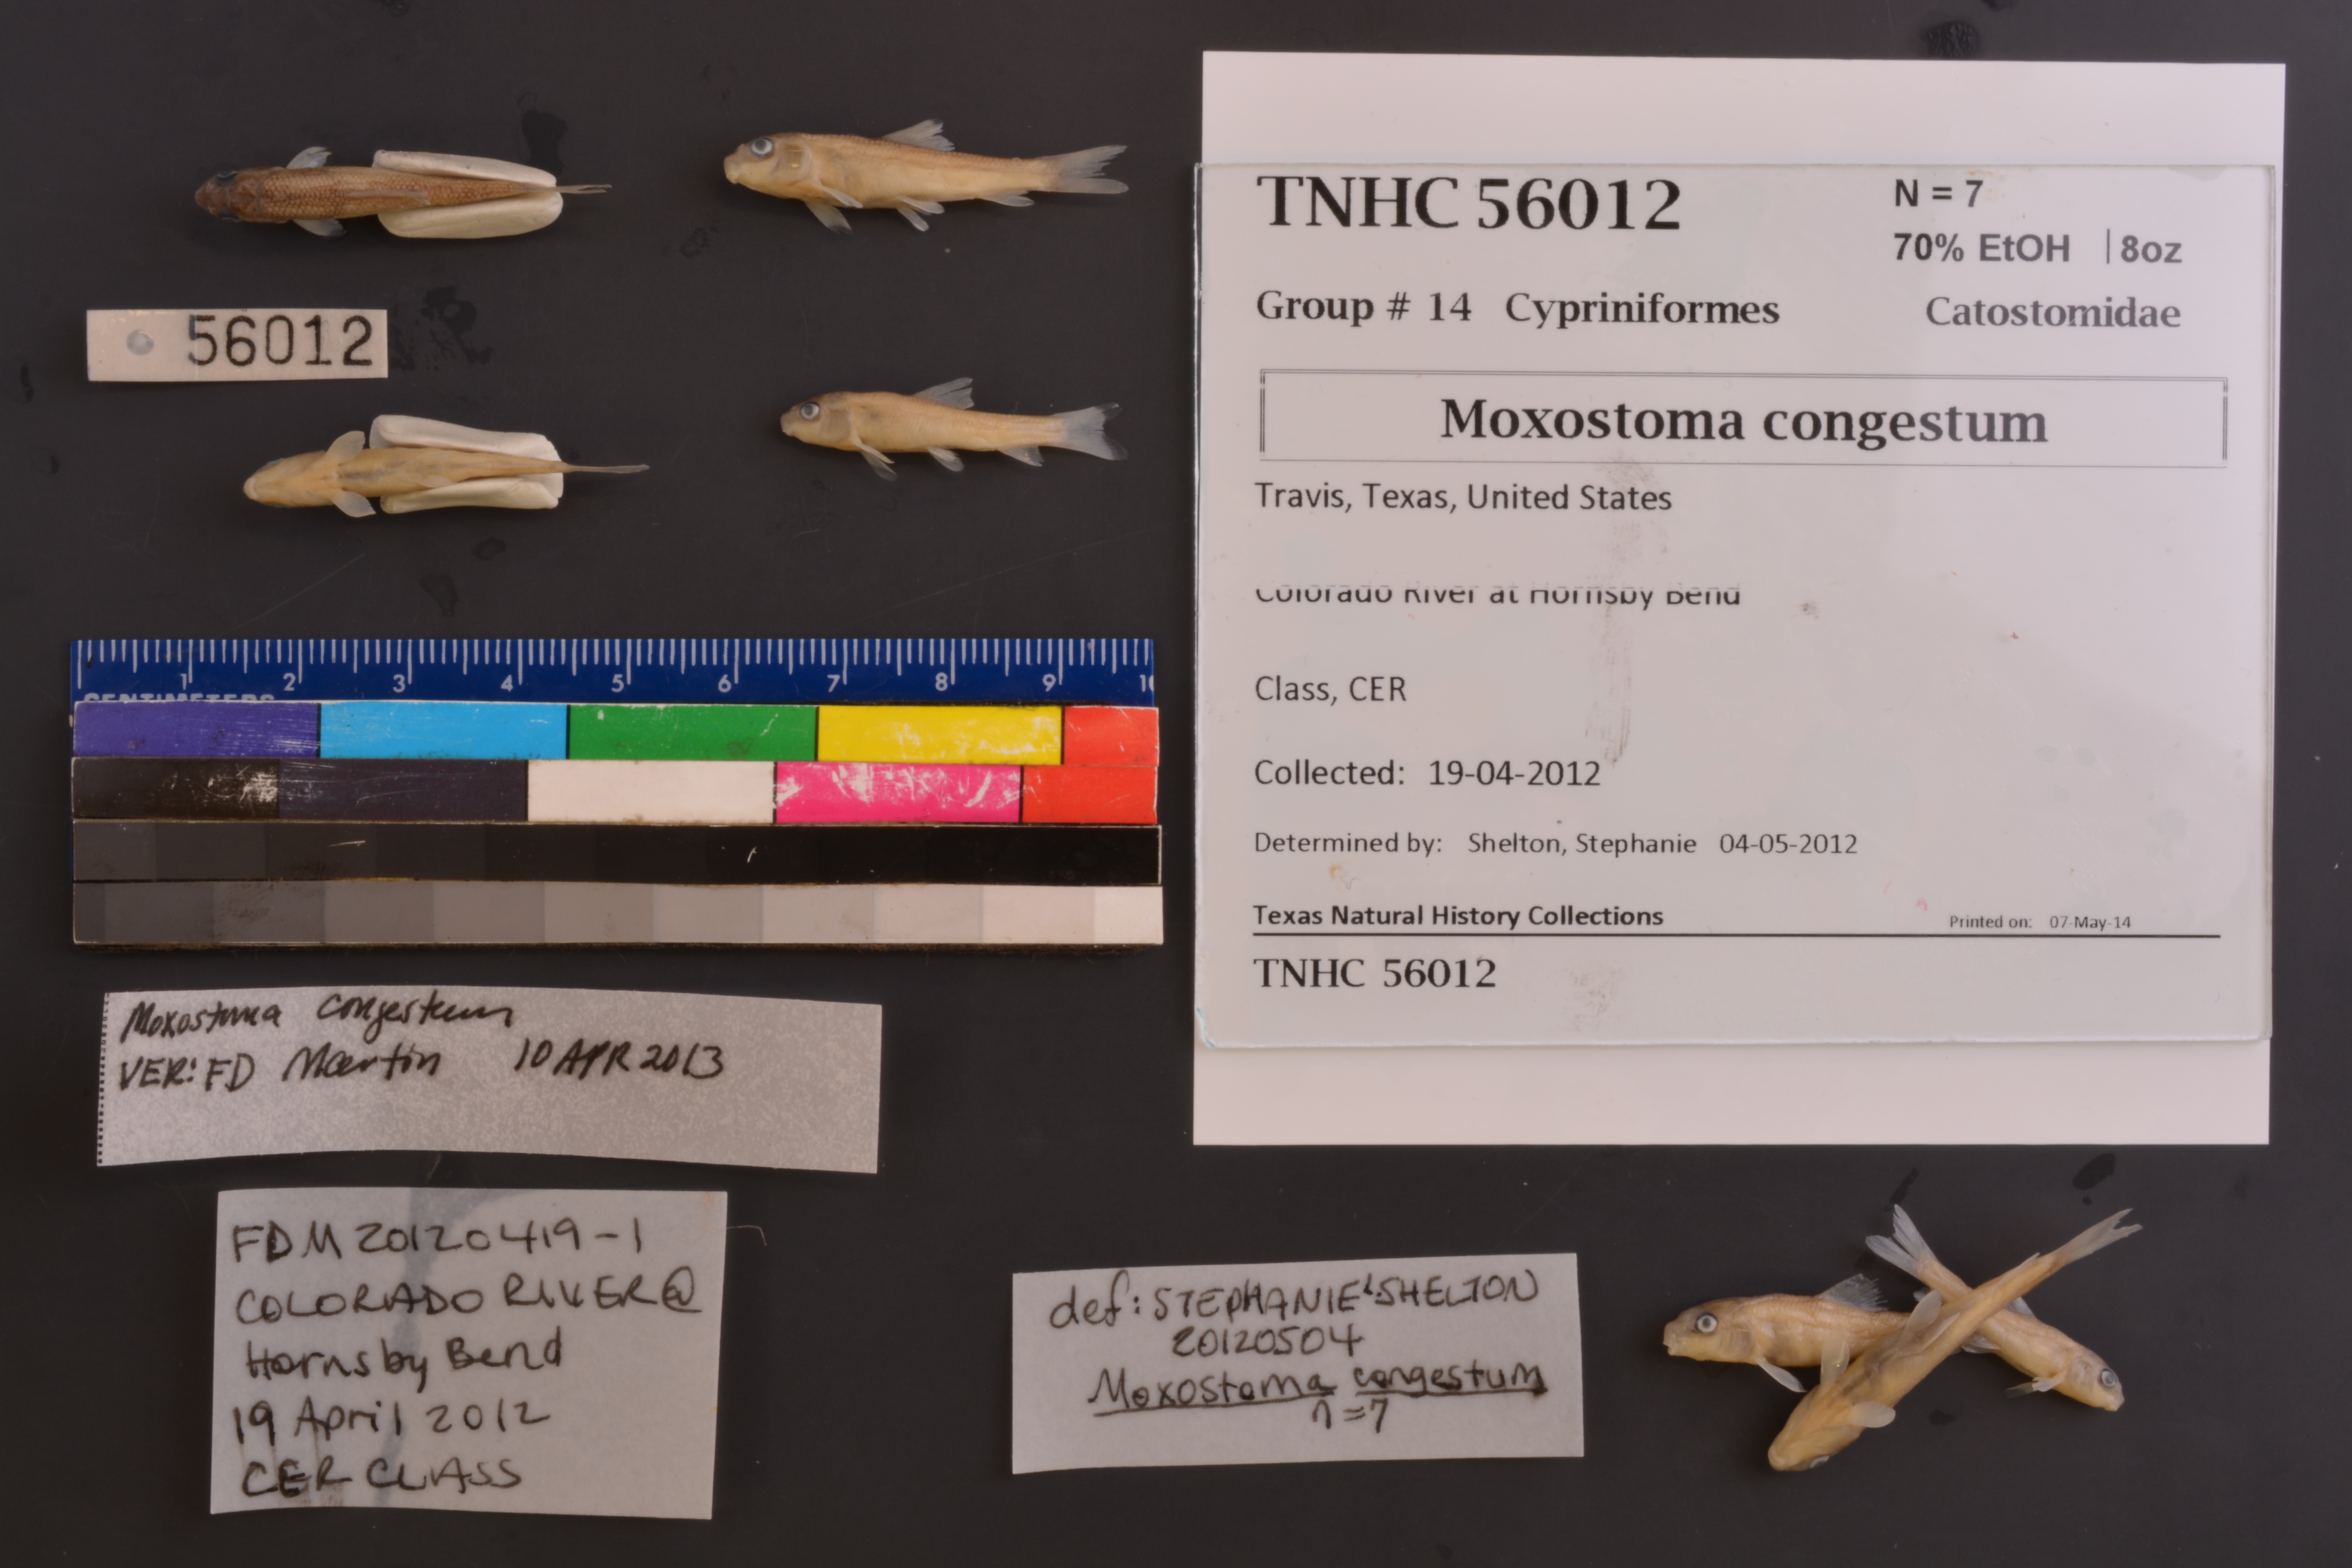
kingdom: Animalia
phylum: Chordata
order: Cypriniformes
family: Catostomidae
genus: Moxostoma
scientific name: Moxostoma congestum
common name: Gray redhorse
